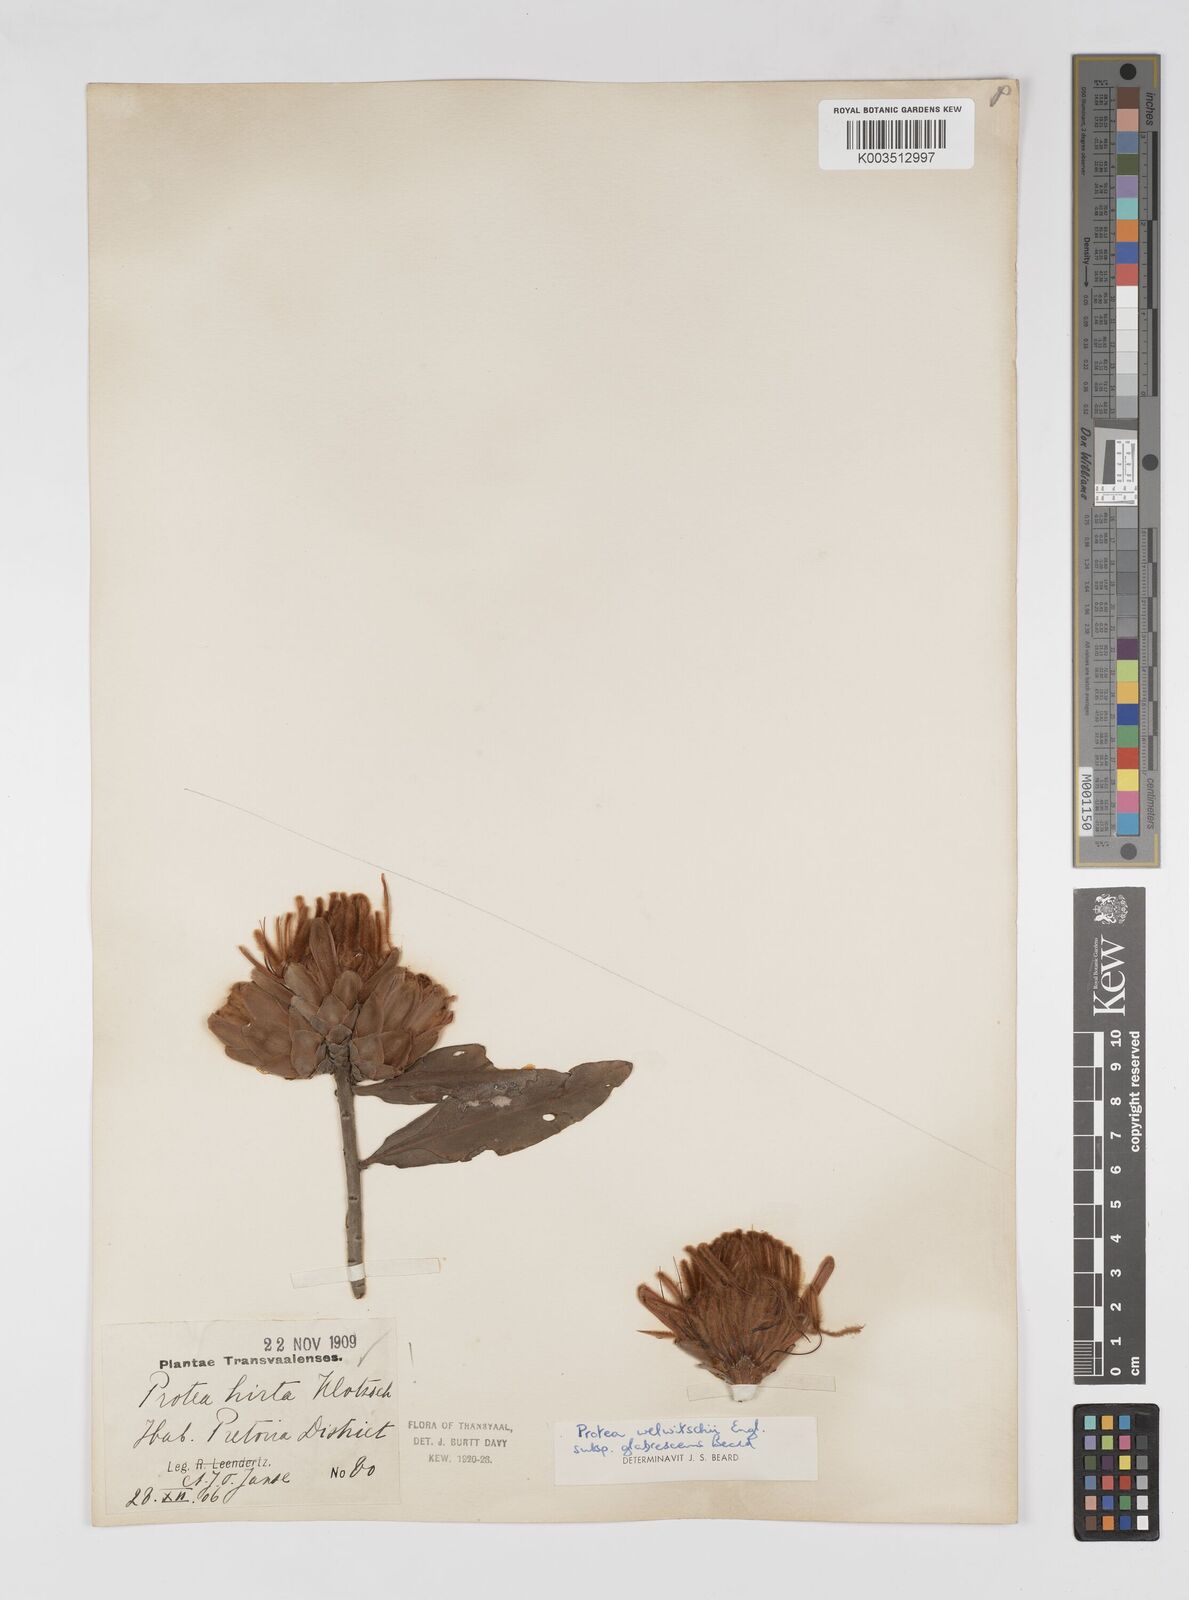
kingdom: Plantae
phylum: Tracheophyta
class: Magnoliopsida
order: Proteales
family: Proteaceae
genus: Protea
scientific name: Protea welwitschii
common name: Cluster-head protea
